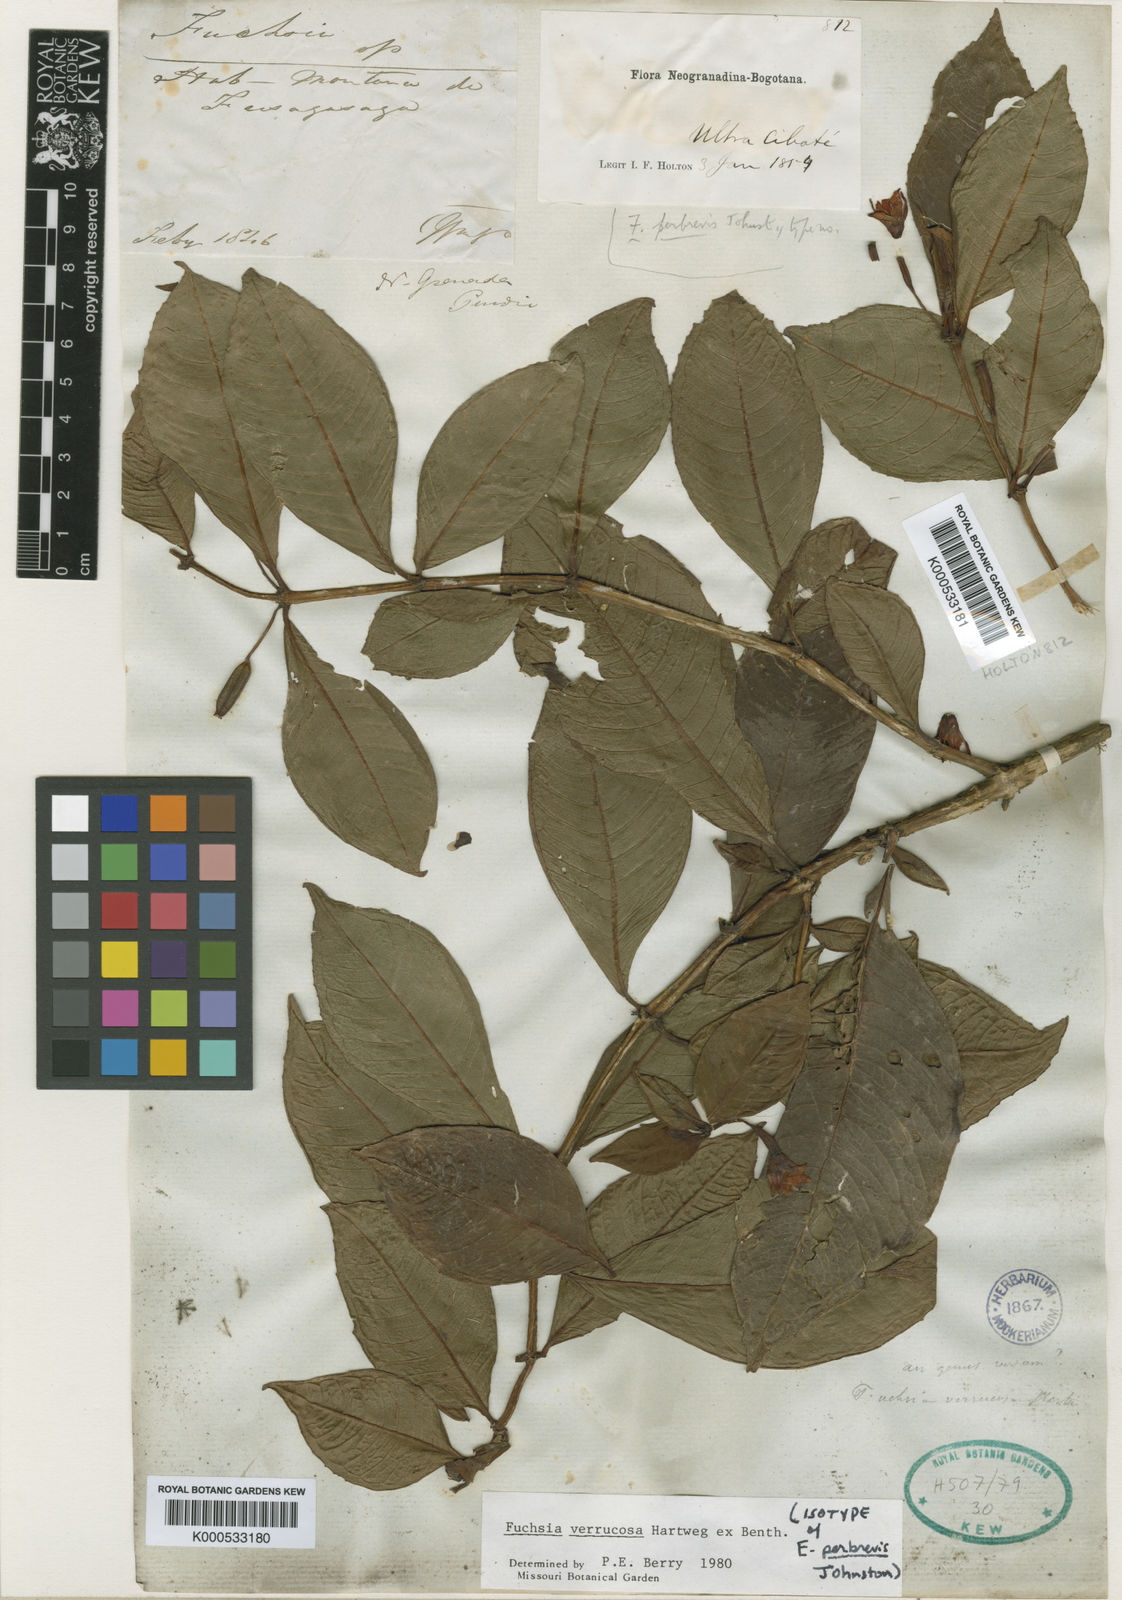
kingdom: Plantae
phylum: Tracheophyta
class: Magnoliopsida
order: Myrtales
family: Onagraceae
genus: Fuchsia
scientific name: Fuchsia verrucosa
